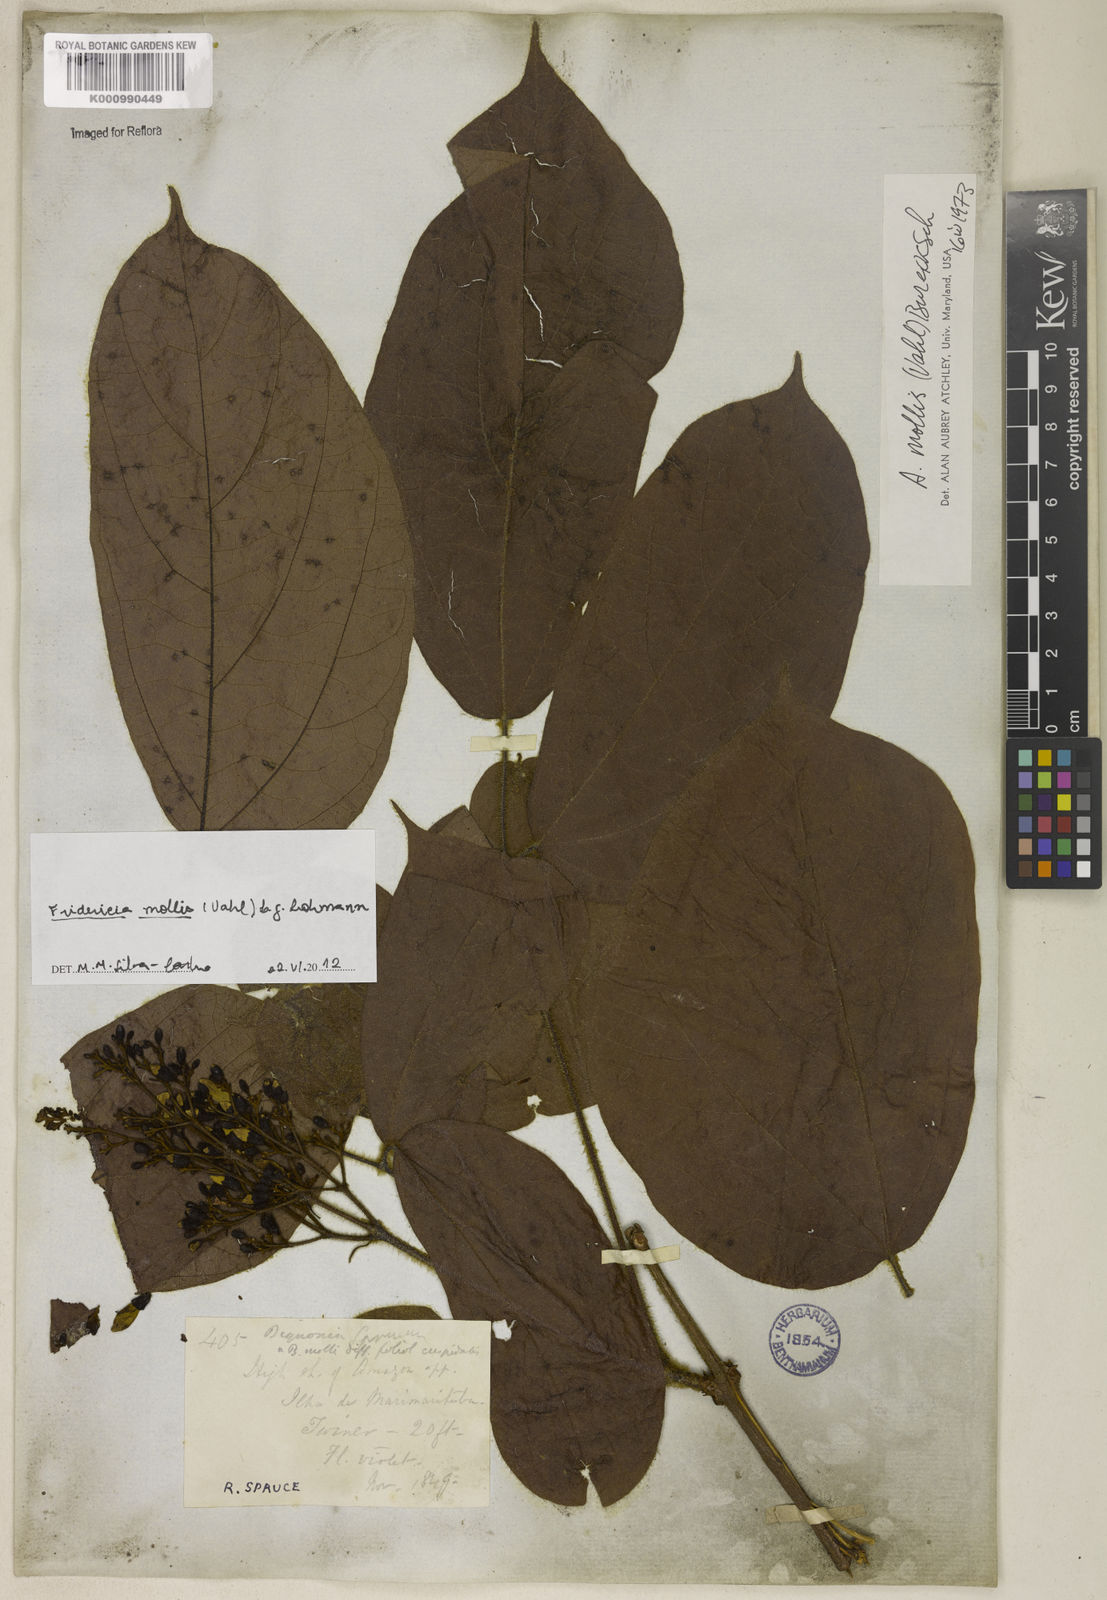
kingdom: Plantae
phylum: Tracheophyta
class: Magnoliopsida
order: Lamiales
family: Bignoniaceae
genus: Fridericia
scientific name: Fridericia mollis
